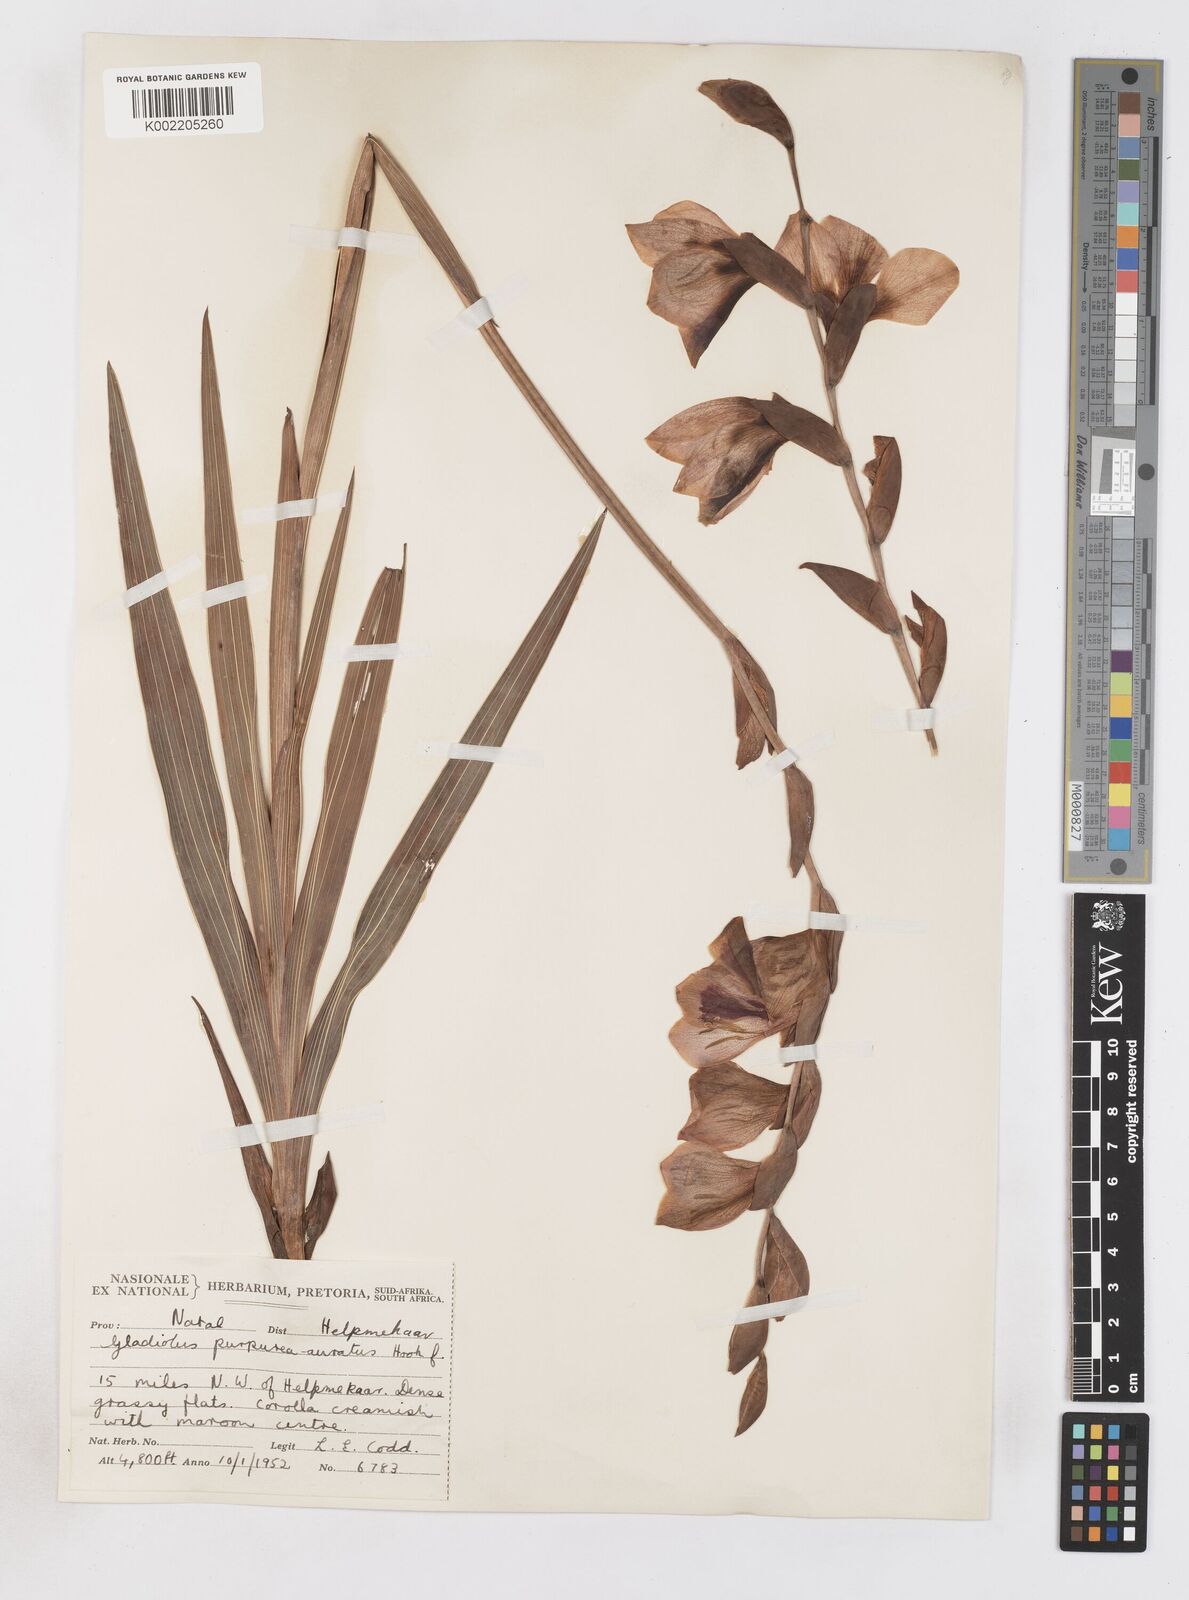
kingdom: Plantae
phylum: Tracheophyta
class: Liliopsida
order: Asparagales
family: Iridaceae
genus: Gladiolus
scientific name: Gladiolus papilio
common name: Goldblotch gladiolus
